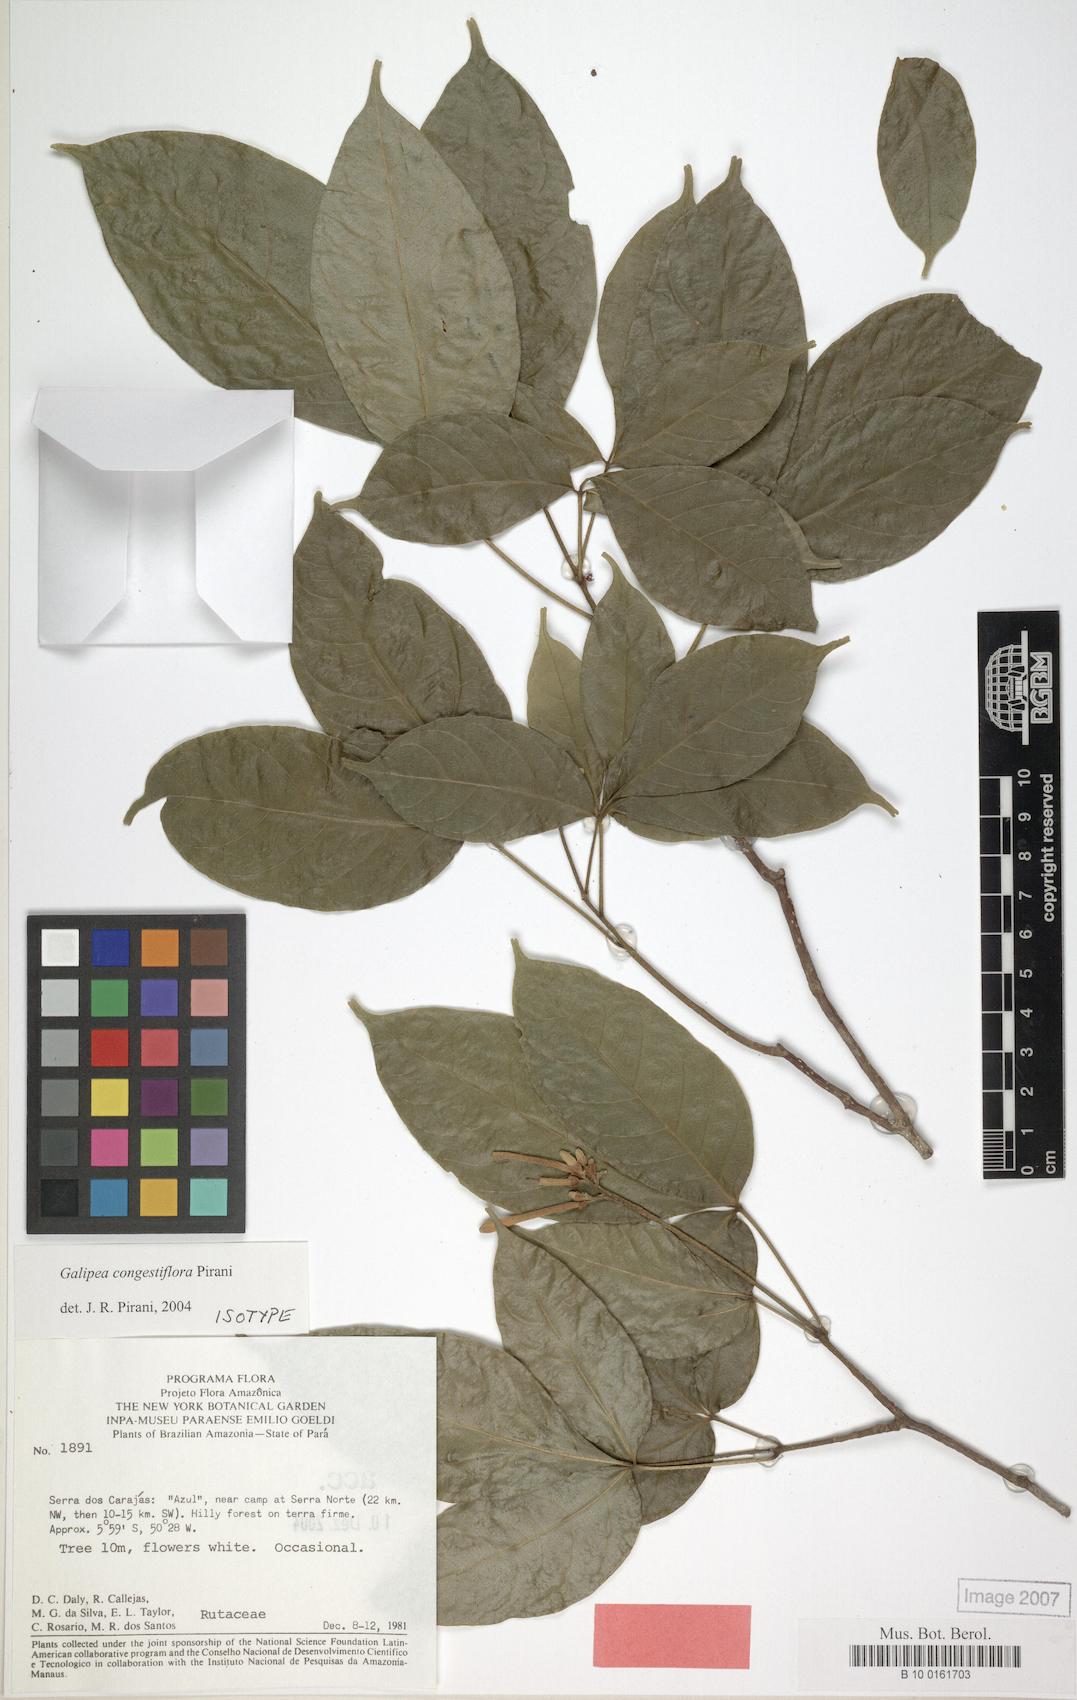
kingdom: Plantae
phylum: Tracheophyta
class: Magnoliopsida
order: Sapindales
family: Rutaceae
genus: Galipea
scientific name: Galipea congestiflora
